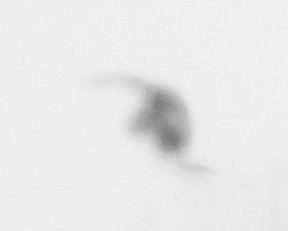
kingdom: Animalia
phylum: Arthropoda
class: Copepoda
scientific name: Copepoda
